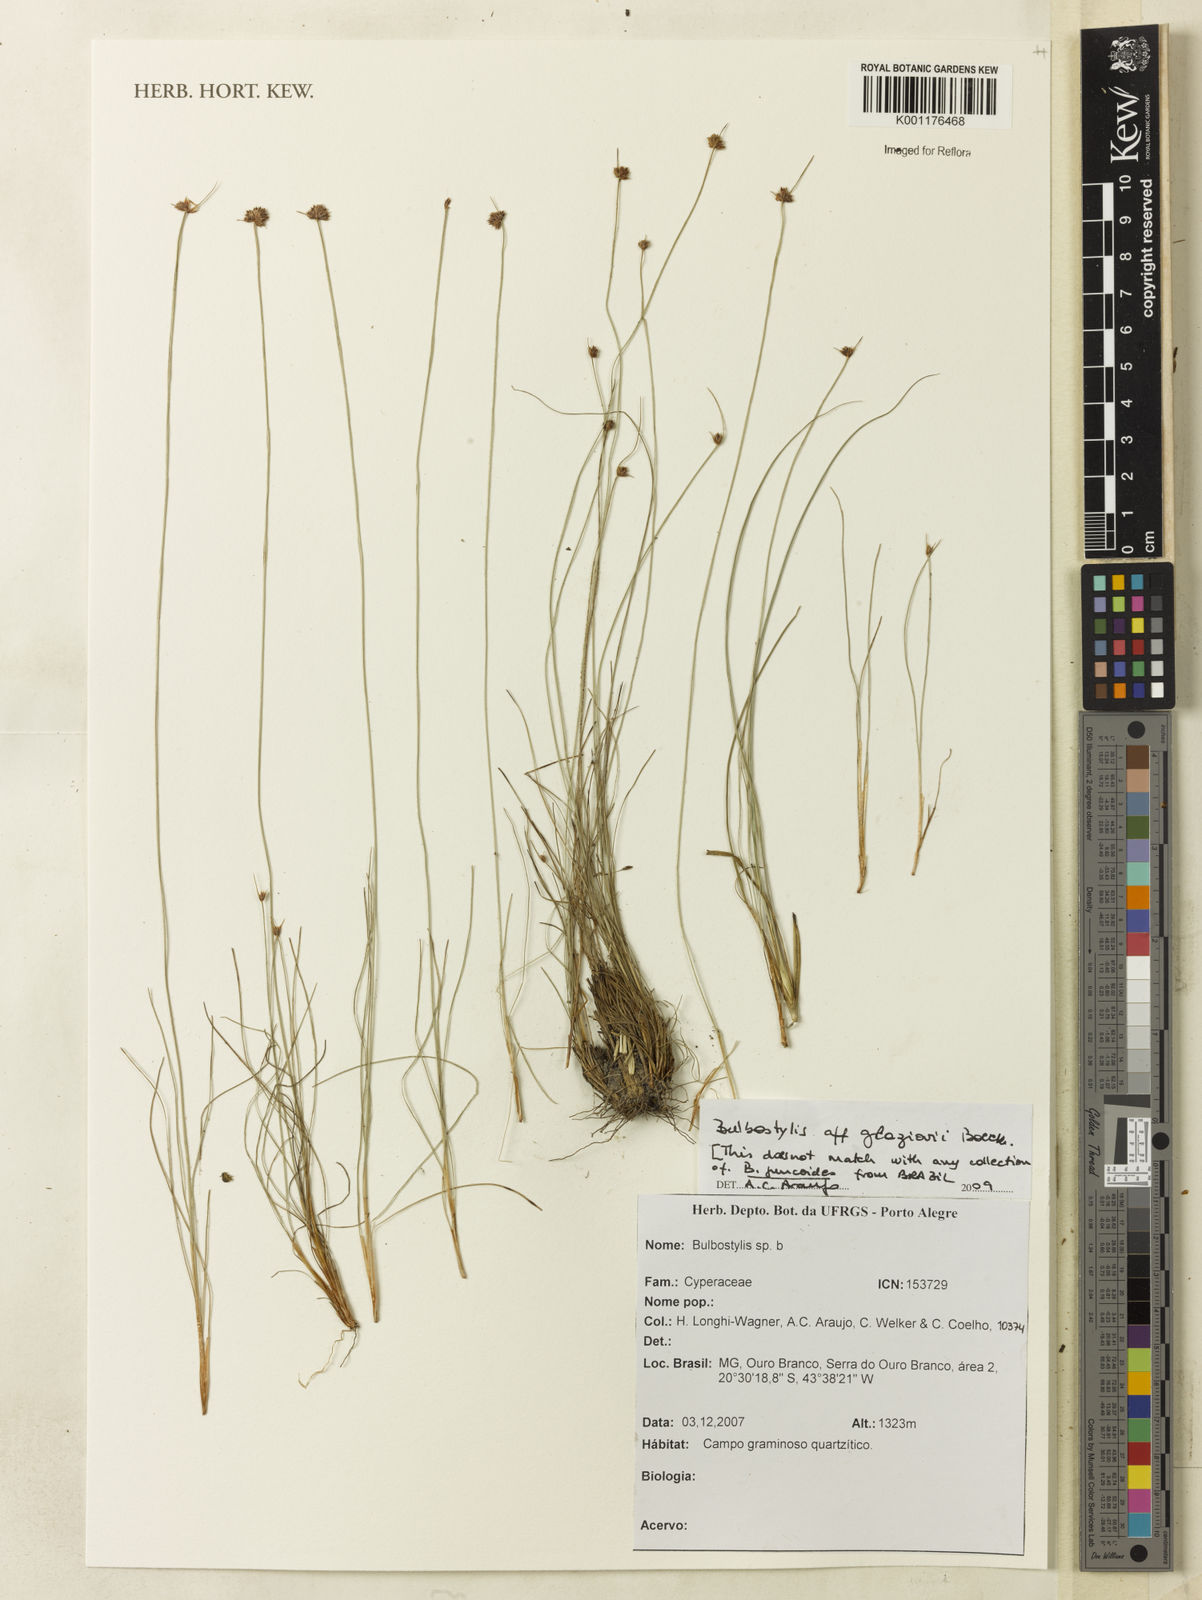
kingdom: Plantae
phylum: Tracheophyta
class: Liliopsida
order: Poales
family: Cyperaceae
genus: Bulbostylis
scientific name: Bulbostylis juncoides
